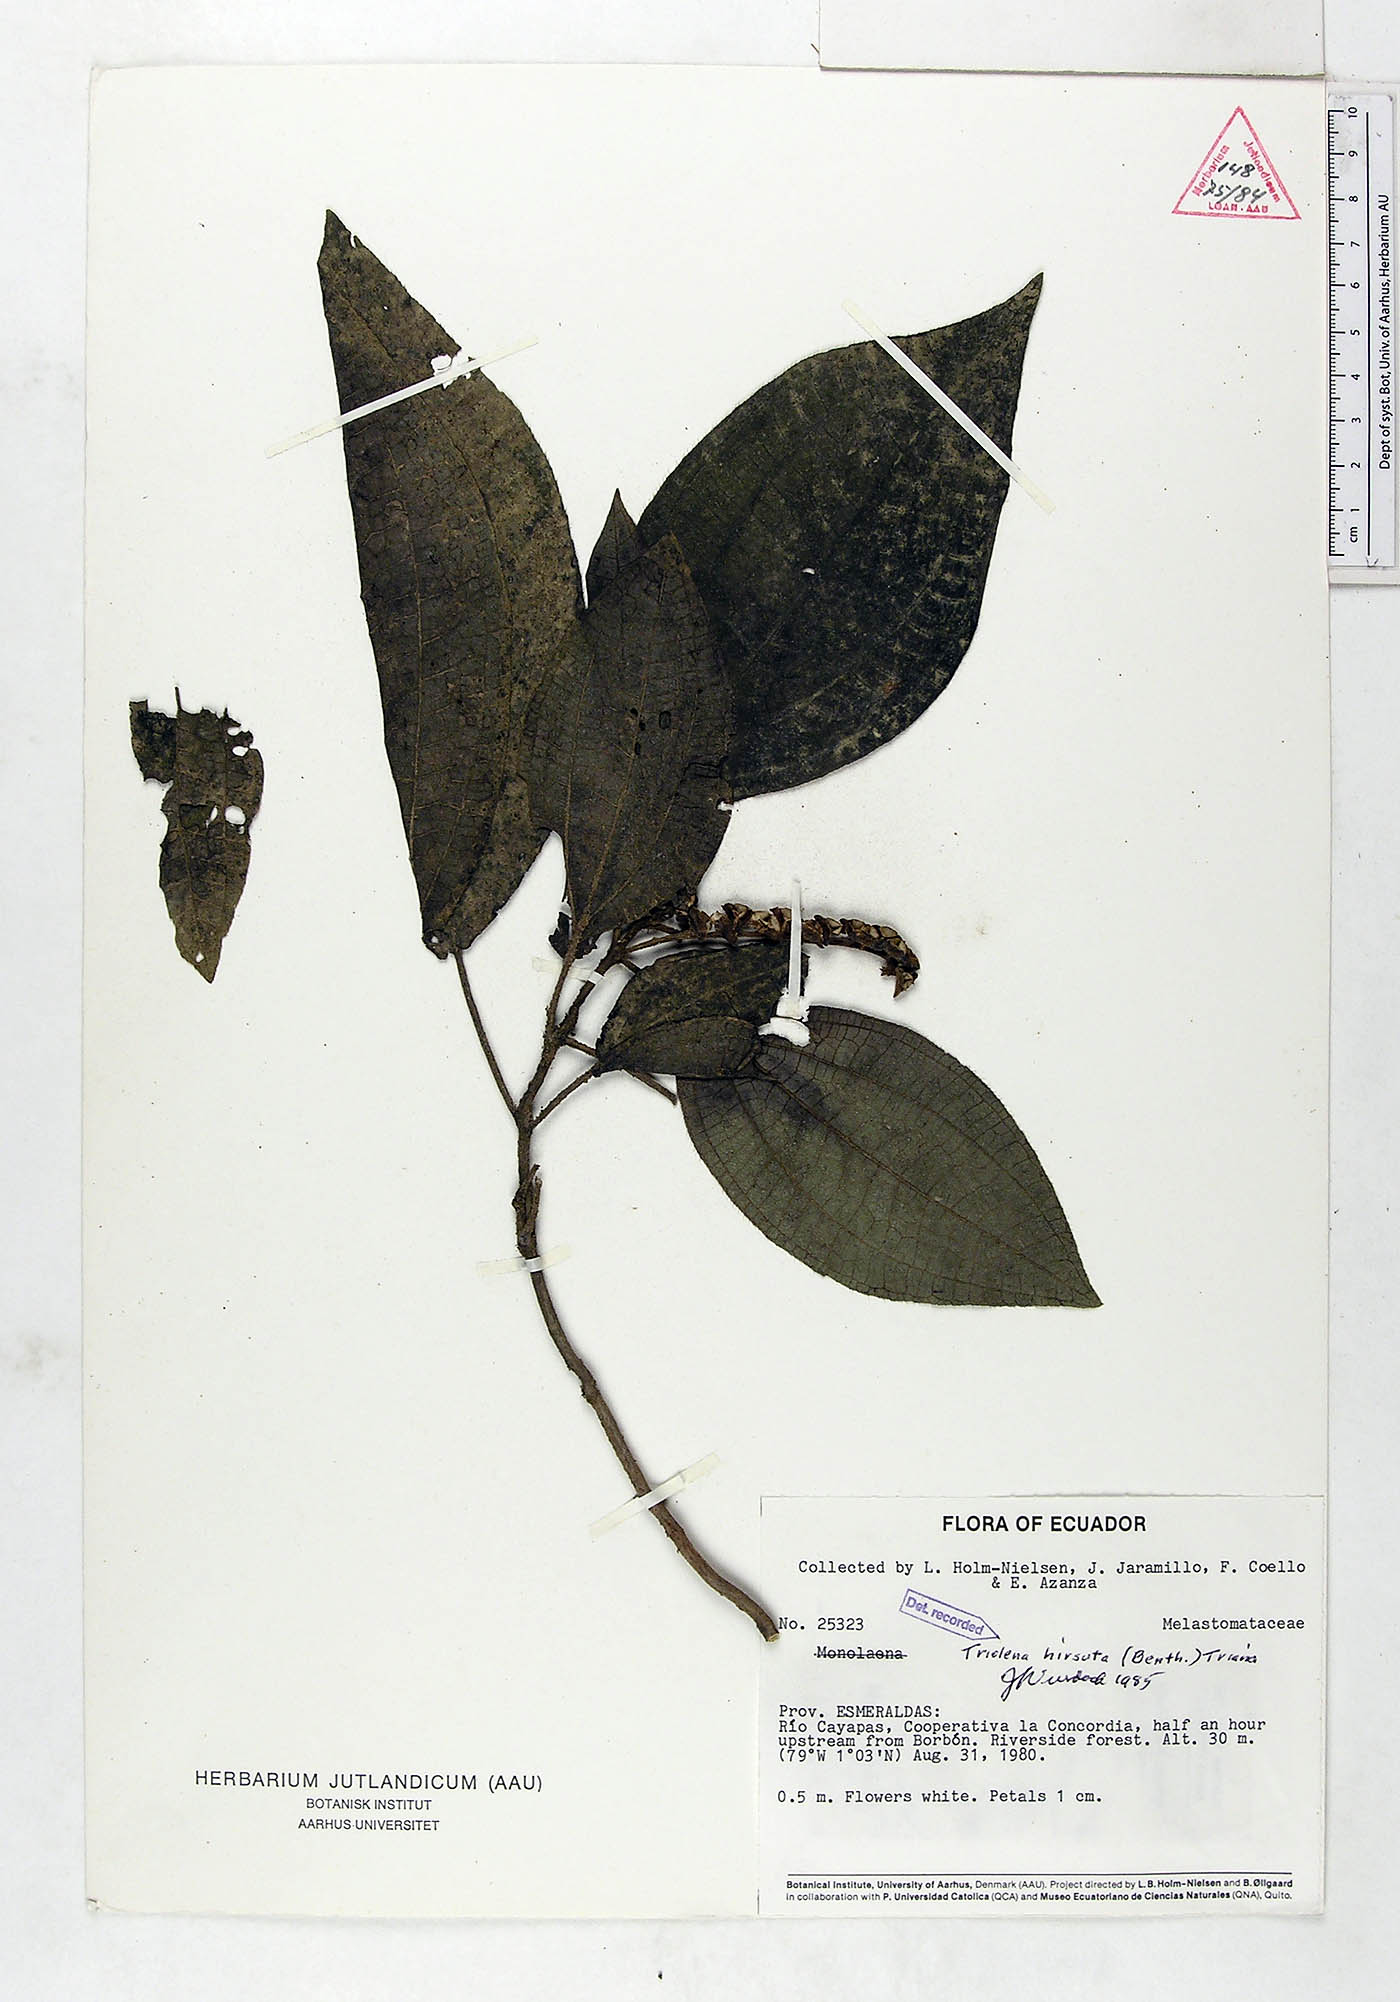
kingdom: Plantae
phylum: Tracheophyta
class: Magnoliopsida
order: Myrtales
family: Melastomataceae
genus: Triolena
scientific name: Triolena hirsuta
